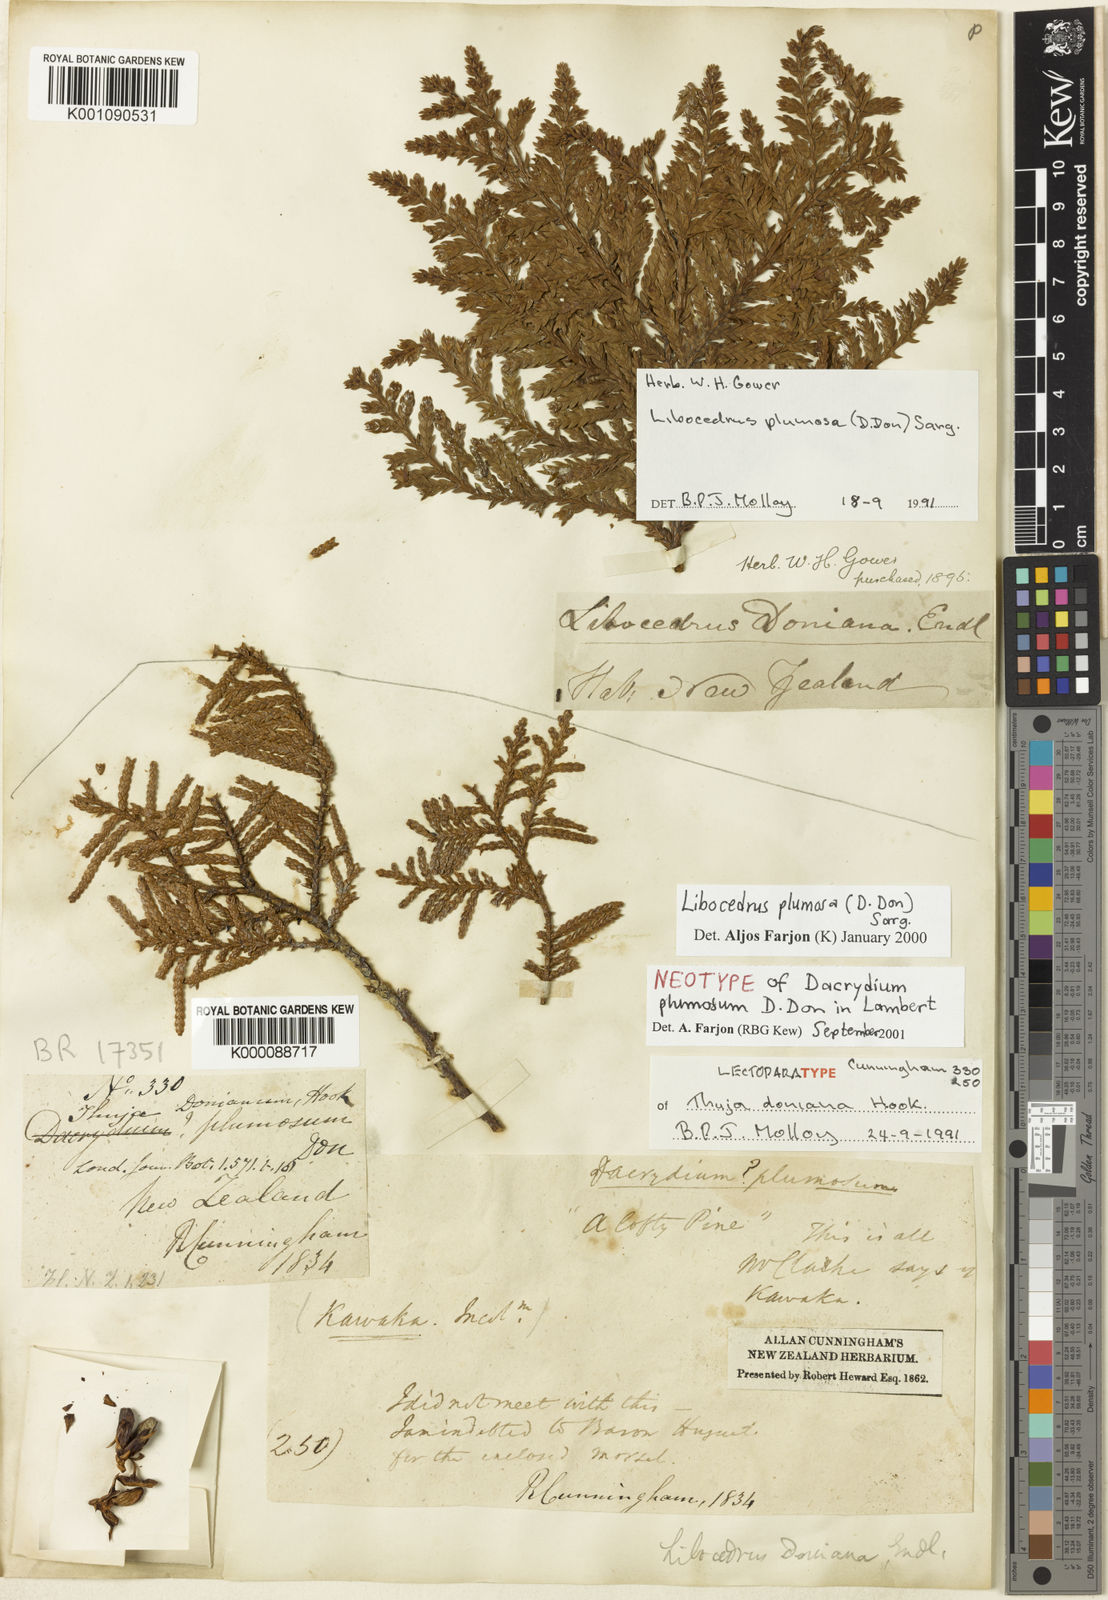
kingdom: Plantae
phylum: Tracheophyta
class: Pinopsida
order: Pinales
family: Cupressaceae
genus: Libocedrus
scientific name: Libocedrus
